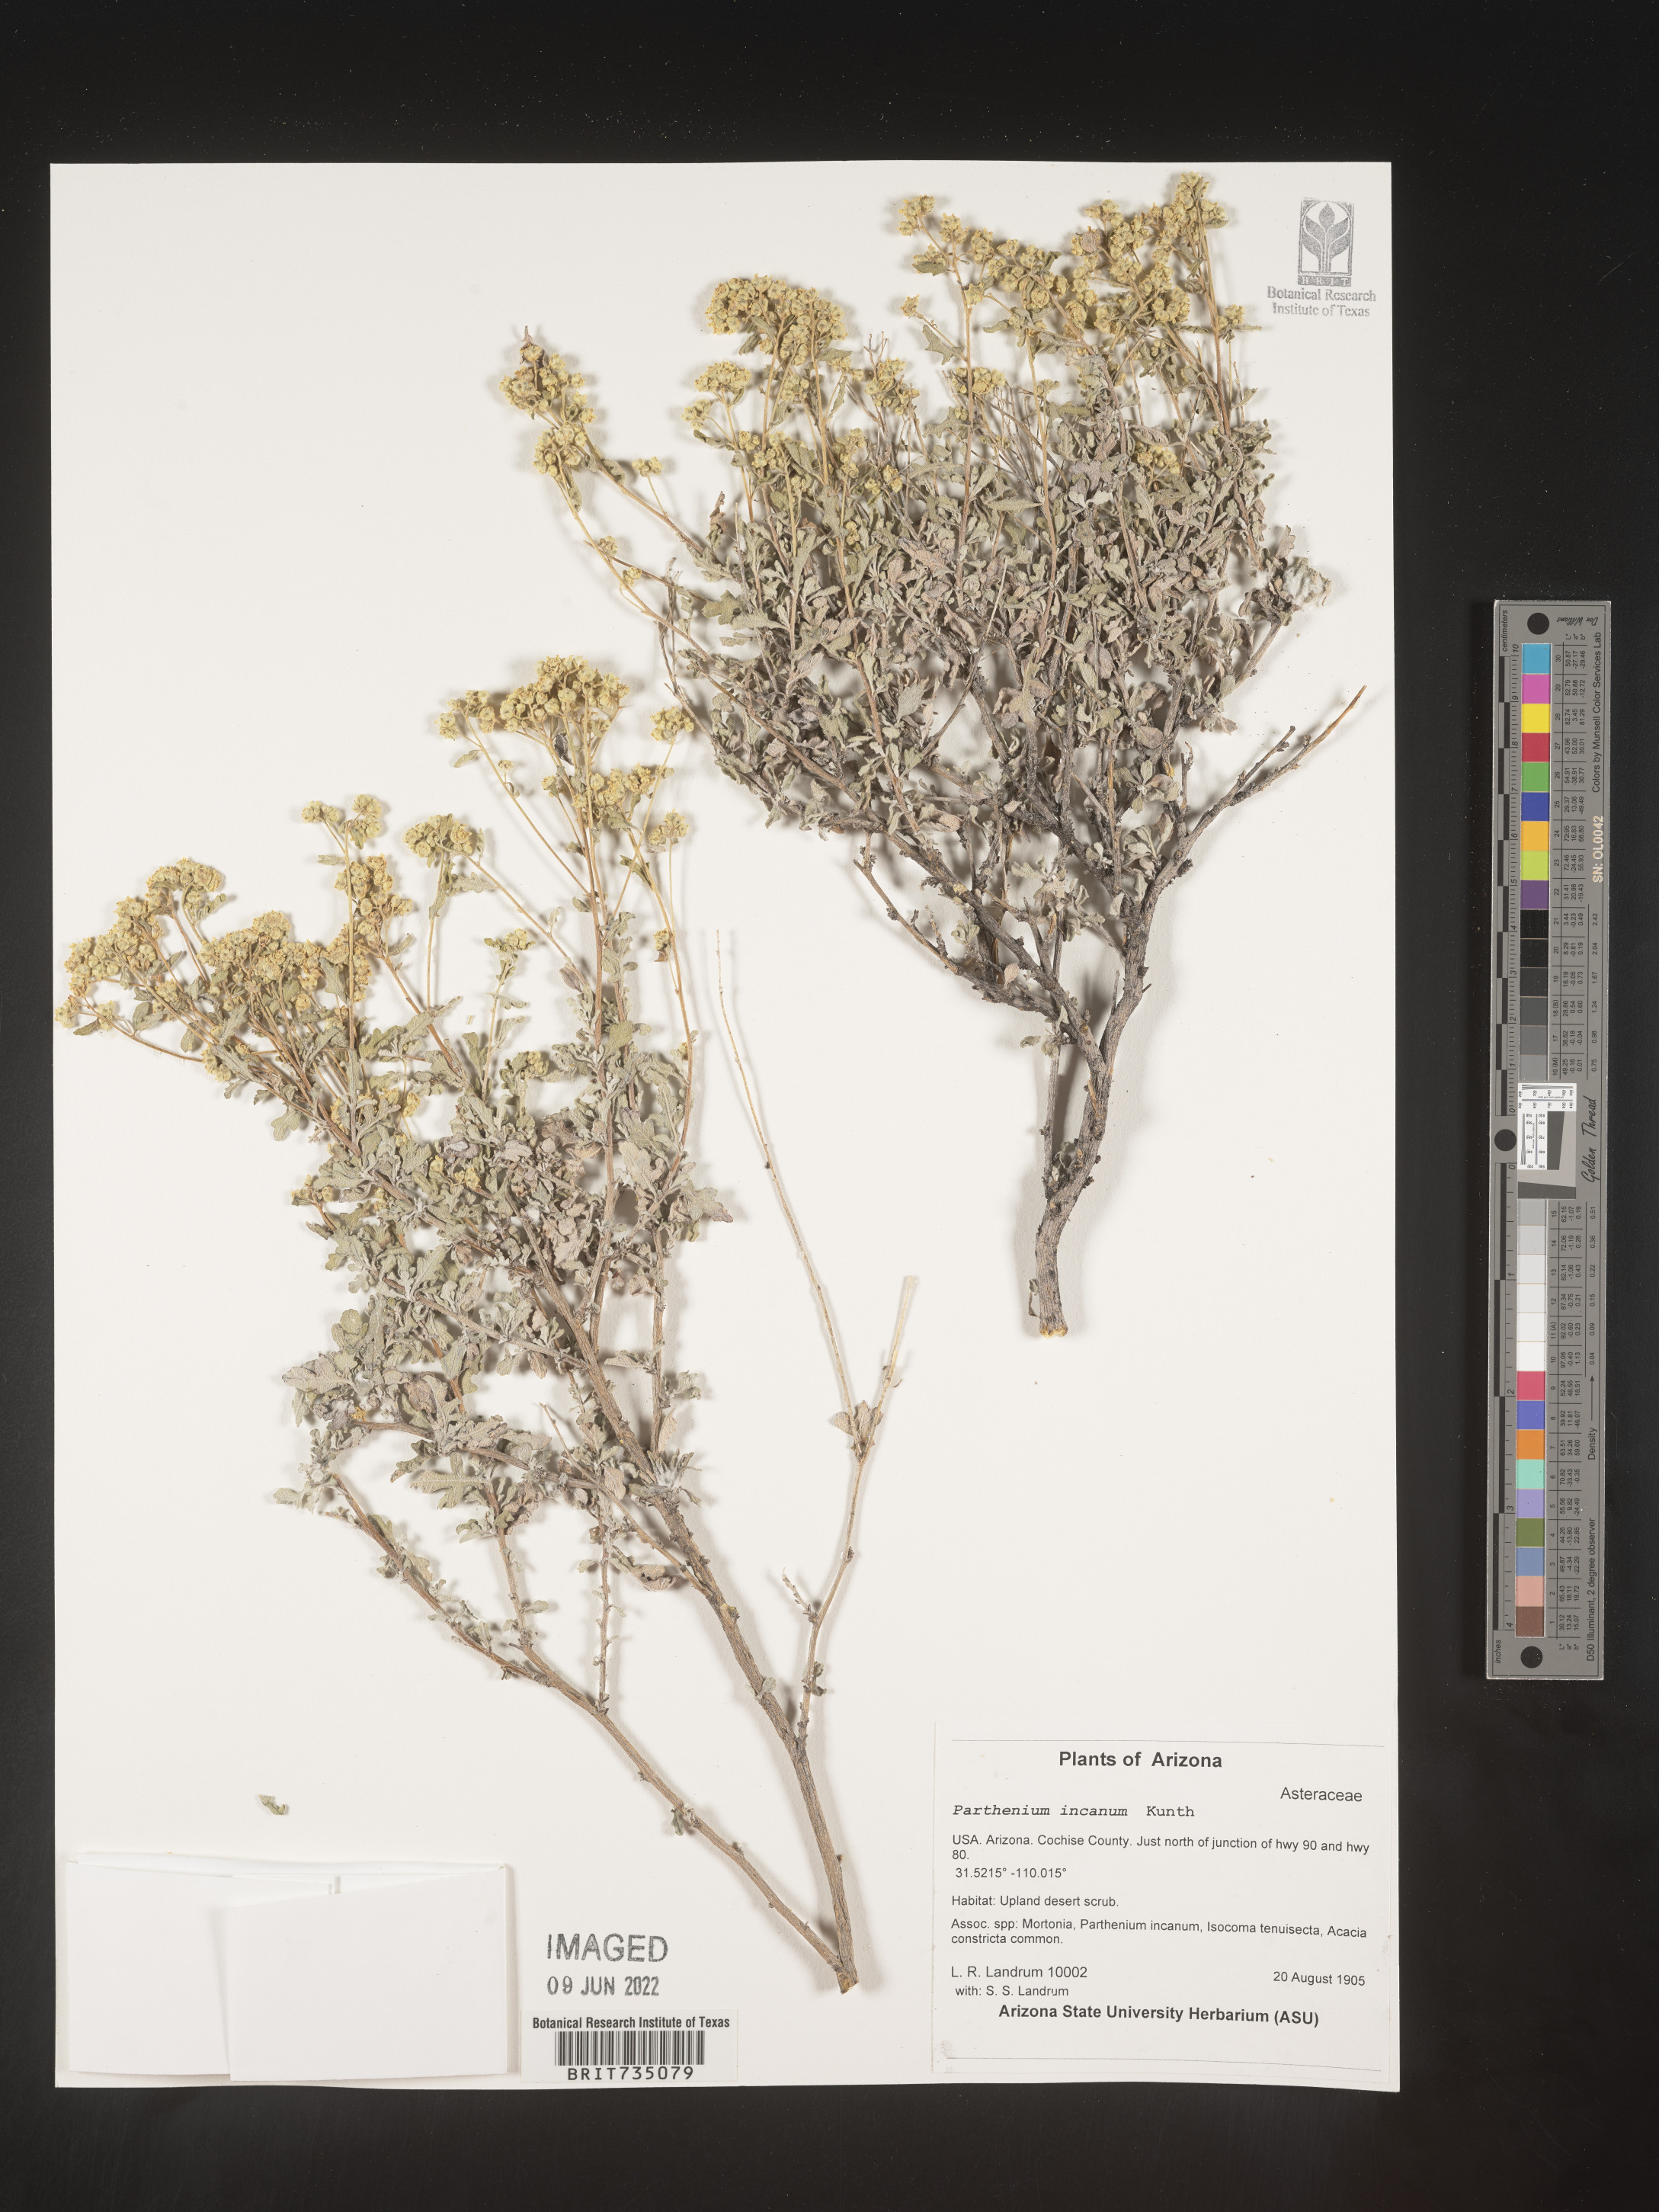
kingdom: Plantae
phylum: Tracheophyta
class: Magnoliopsida
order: Asterales
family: Asteraceae
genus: Parthenium
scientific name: Parthenium incanum
